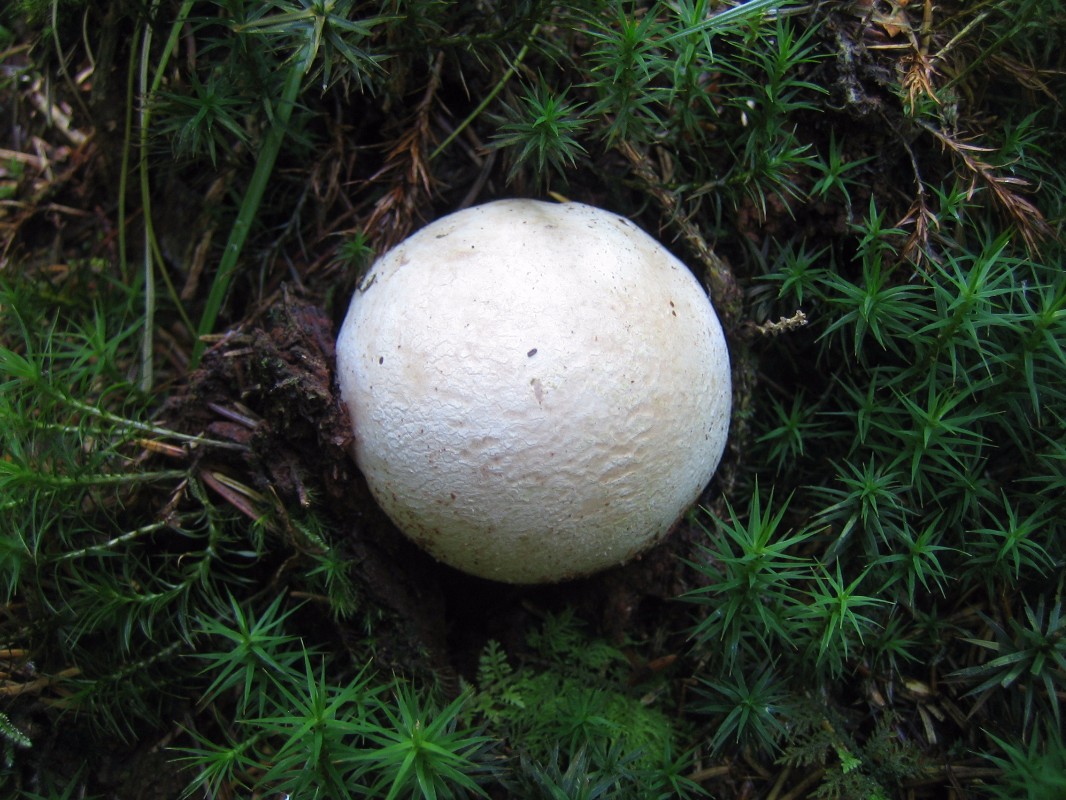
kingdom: Fungi
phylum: Basidiomycota
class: Agaricomycetes
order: Phallales
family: Phallaceae
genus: Phallus
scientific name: Phallus impudicus
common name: almindelig stinksvamp
